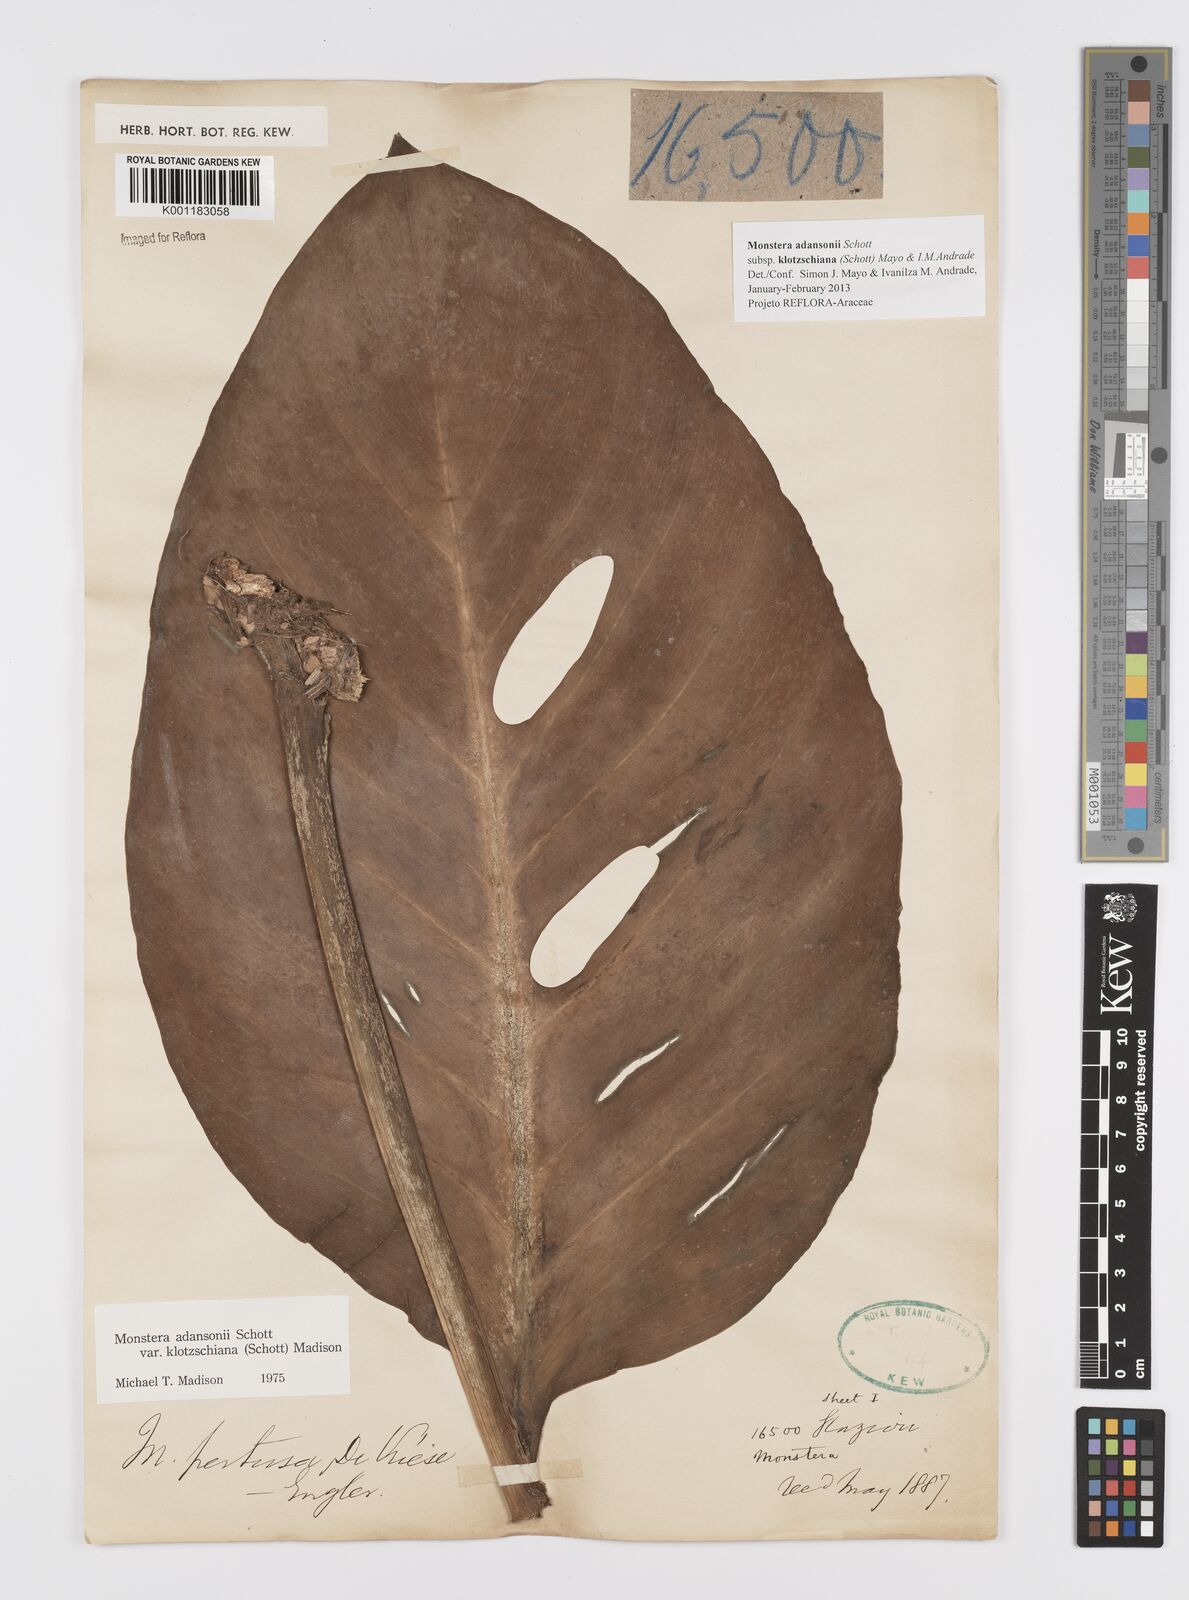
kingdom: Plantae
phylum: Tracheophyta
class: Liliopsida
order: Alismatales
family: Araceae
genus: Monstera
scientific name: Monstera adansonii
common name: Tarovine
